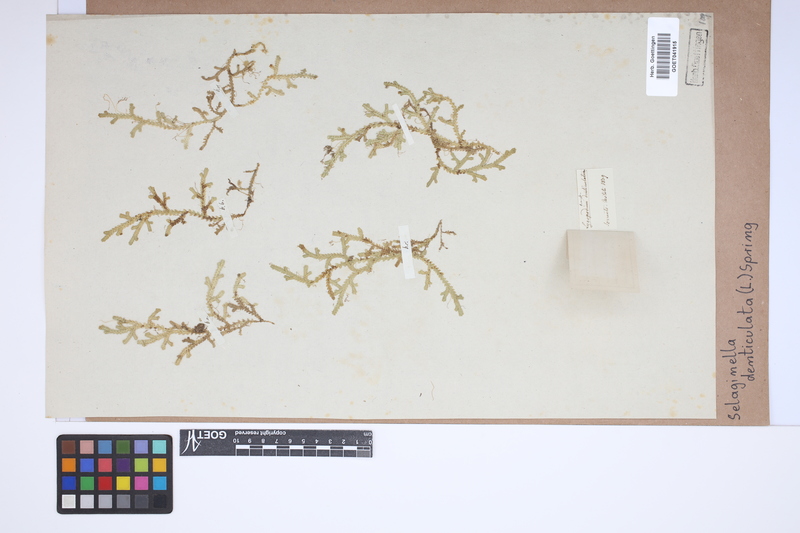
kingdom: Plantae
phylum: Tracheophyta
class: Lycopodiopsida
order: Selaginellales
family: Selaginellaceae
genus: Selaginella
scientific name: Selaginella denticulata
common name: Toothed-leaved clubmoss
